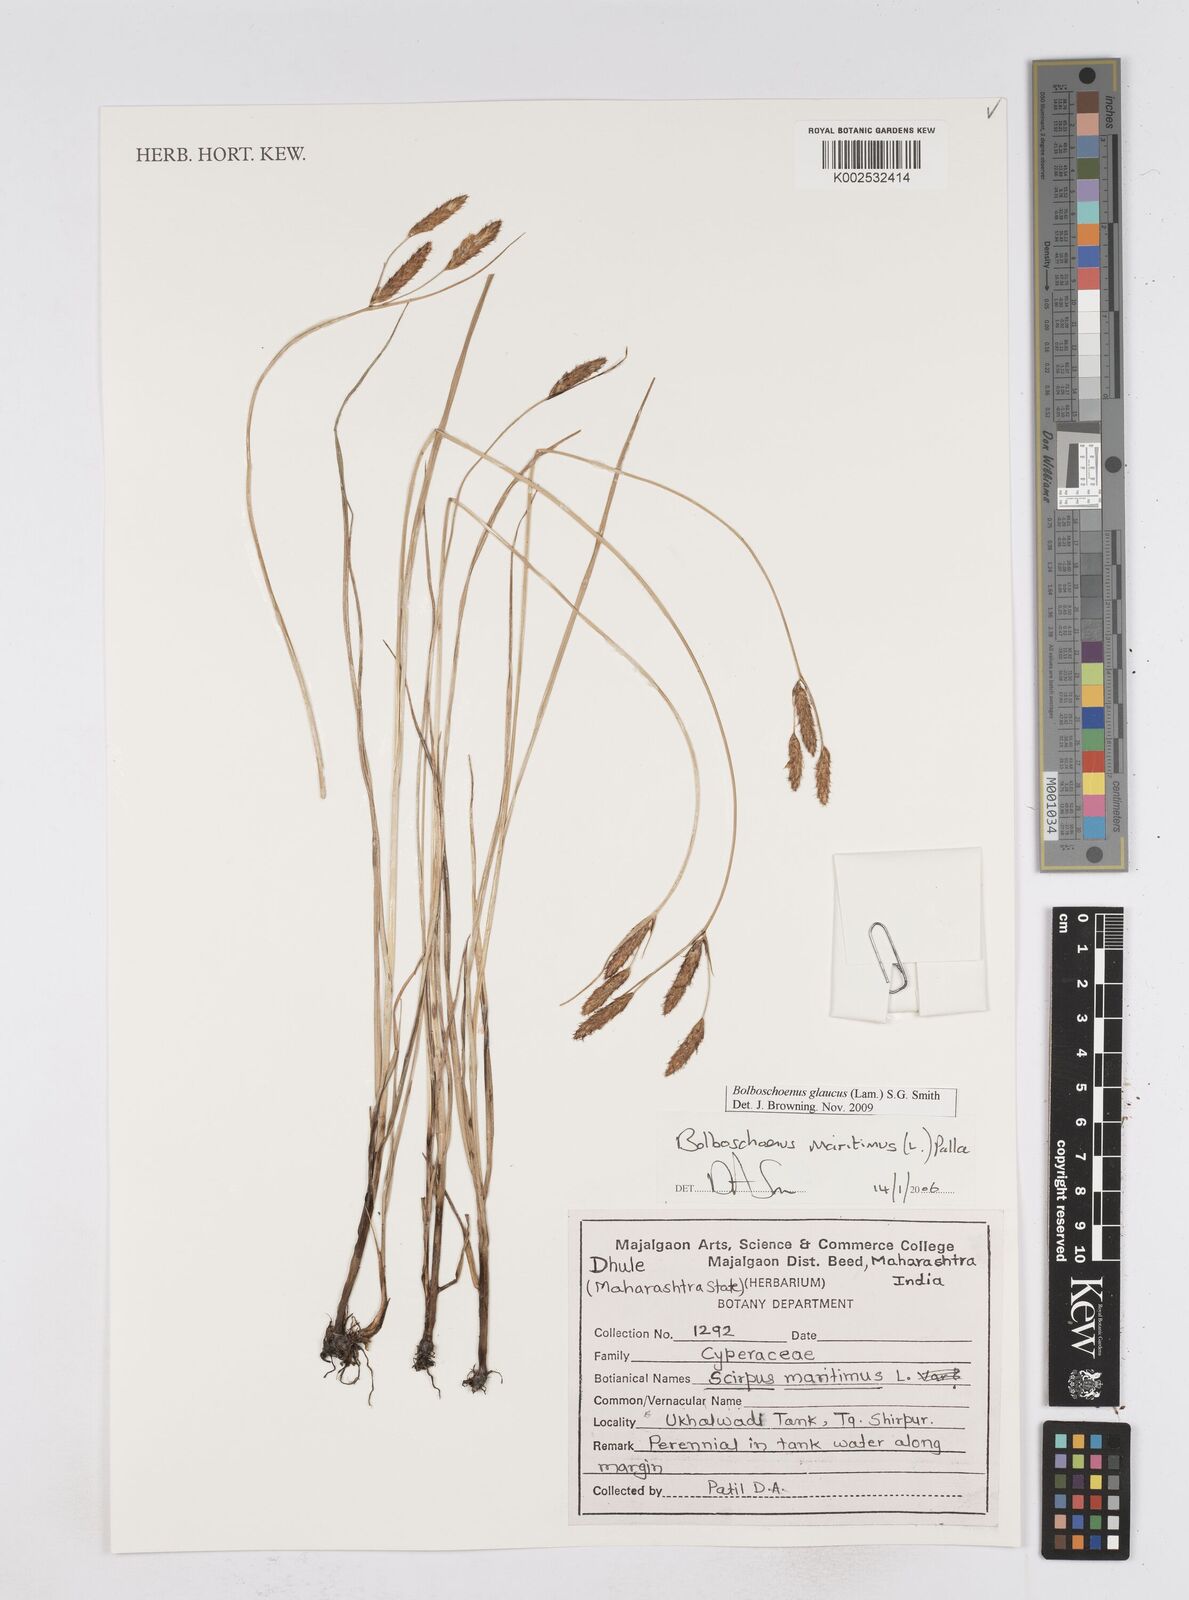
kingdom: Plantae
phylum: Tracheophyta
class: Liliopsida
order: Poales
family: Cyperaceae
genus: Bolboschoenus
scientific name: Bolboschoenus maritimus
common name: Sea club-rush
